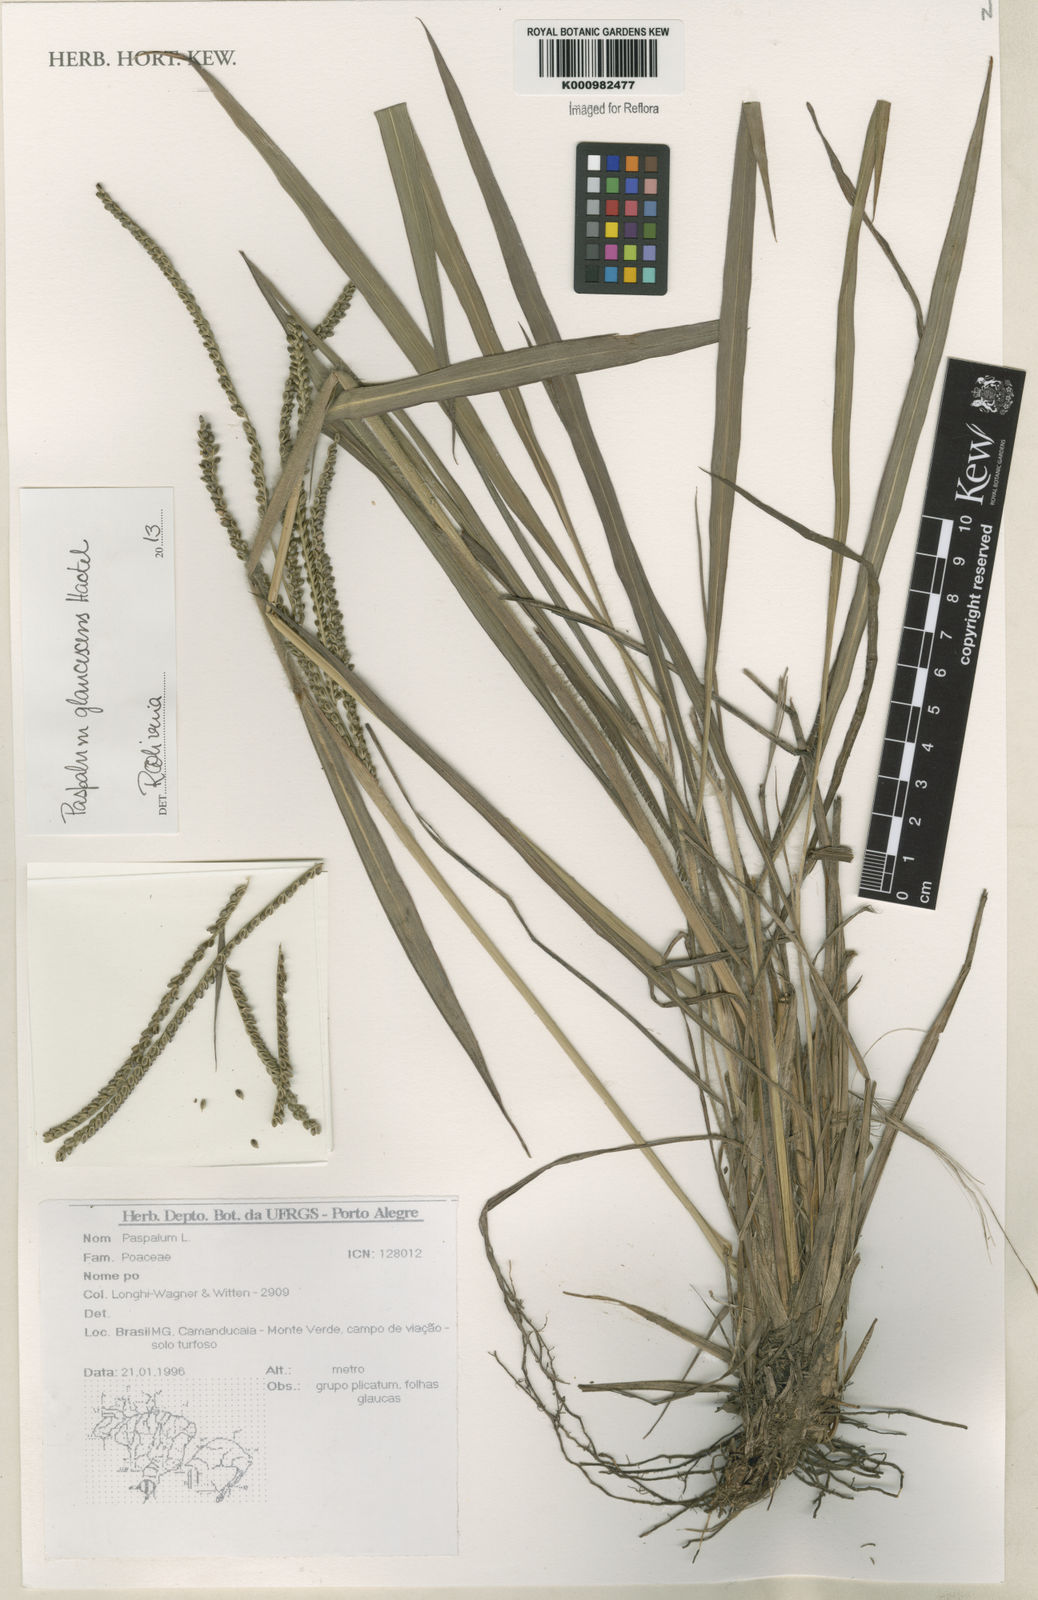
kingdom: Plantae
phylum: Tracheophyta
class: Liliopsida
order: Poales
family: Poaceae
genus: Paspalum
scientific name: Paspalum glaucescens
